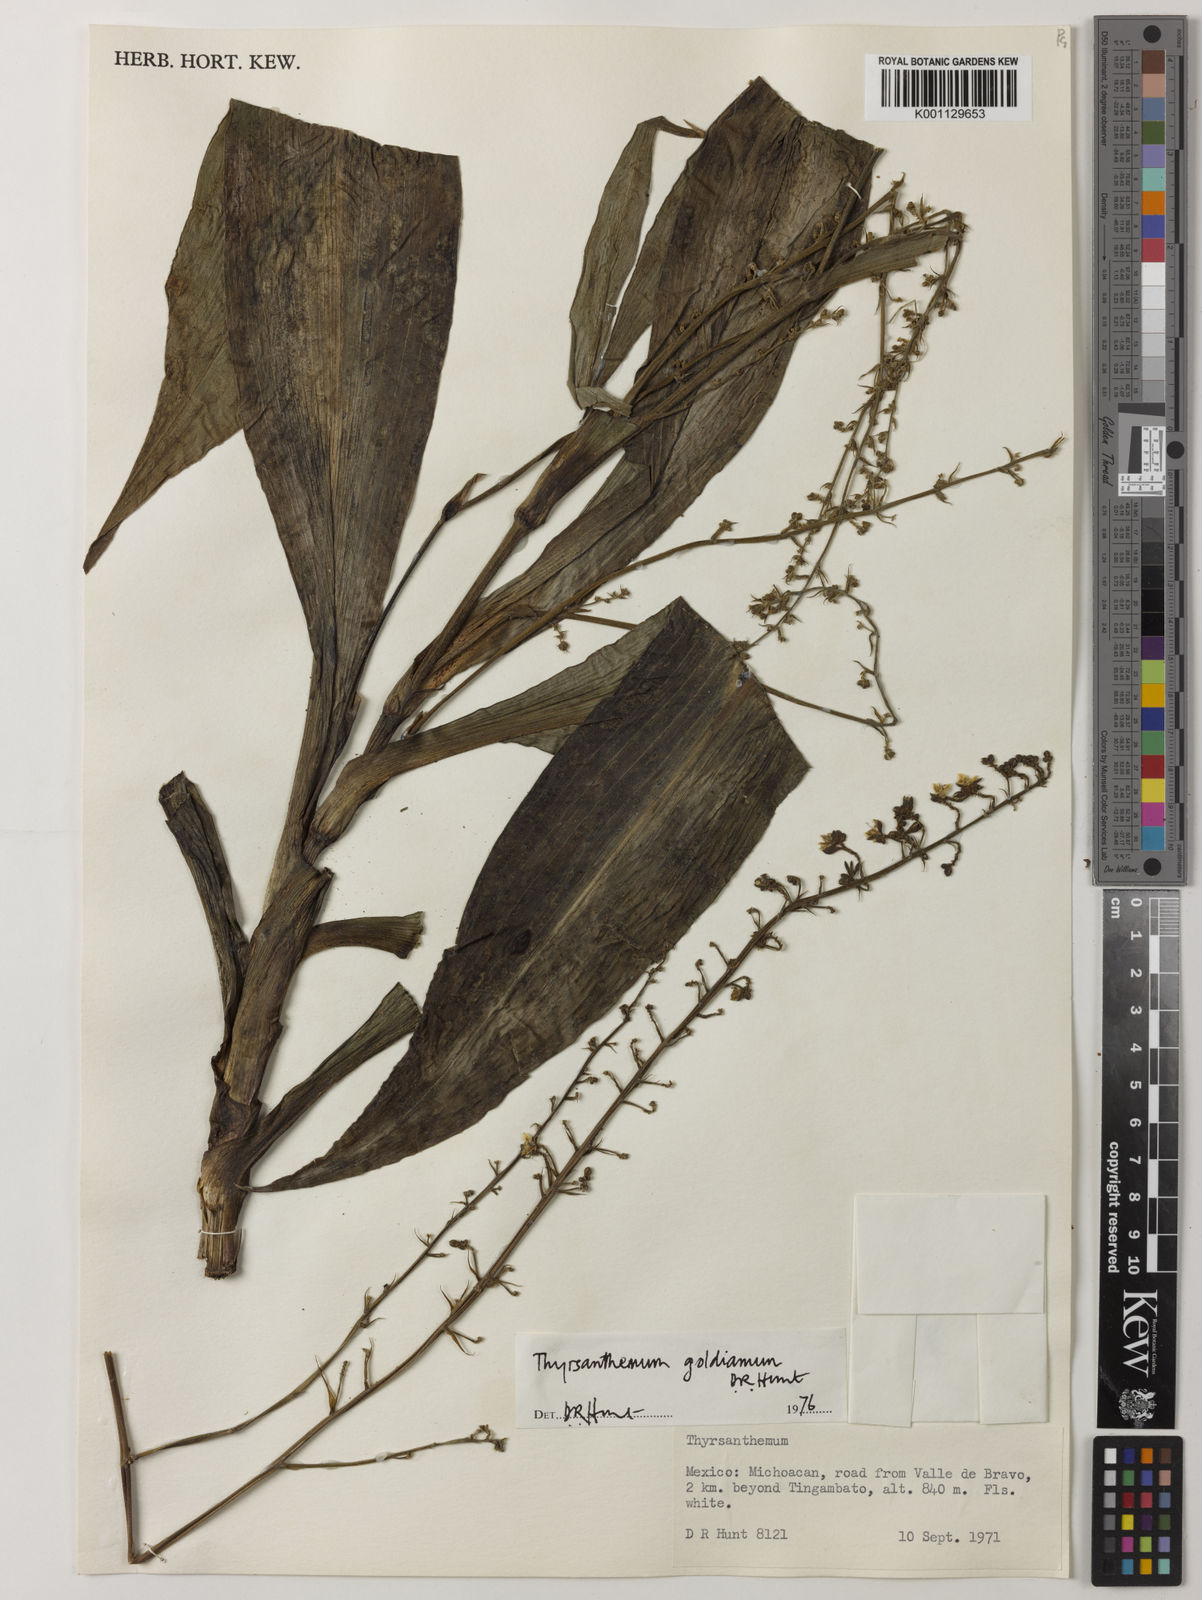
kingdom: Plantae
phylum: Tracheophyta
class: Liliopsida
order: Commelinales
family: Commelinaceae
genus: Thyrsanthemum
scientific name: Thyrsanthemum goldianum
